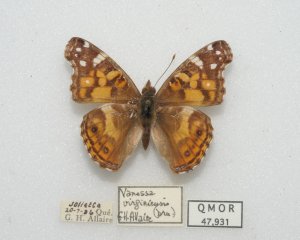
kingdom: Animalia
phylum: Arthropoda
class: Insecta
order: Lepidoptera
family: Nymphalidae
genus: Vanessa
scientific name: Vanessa virginiensis
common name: American Lady
